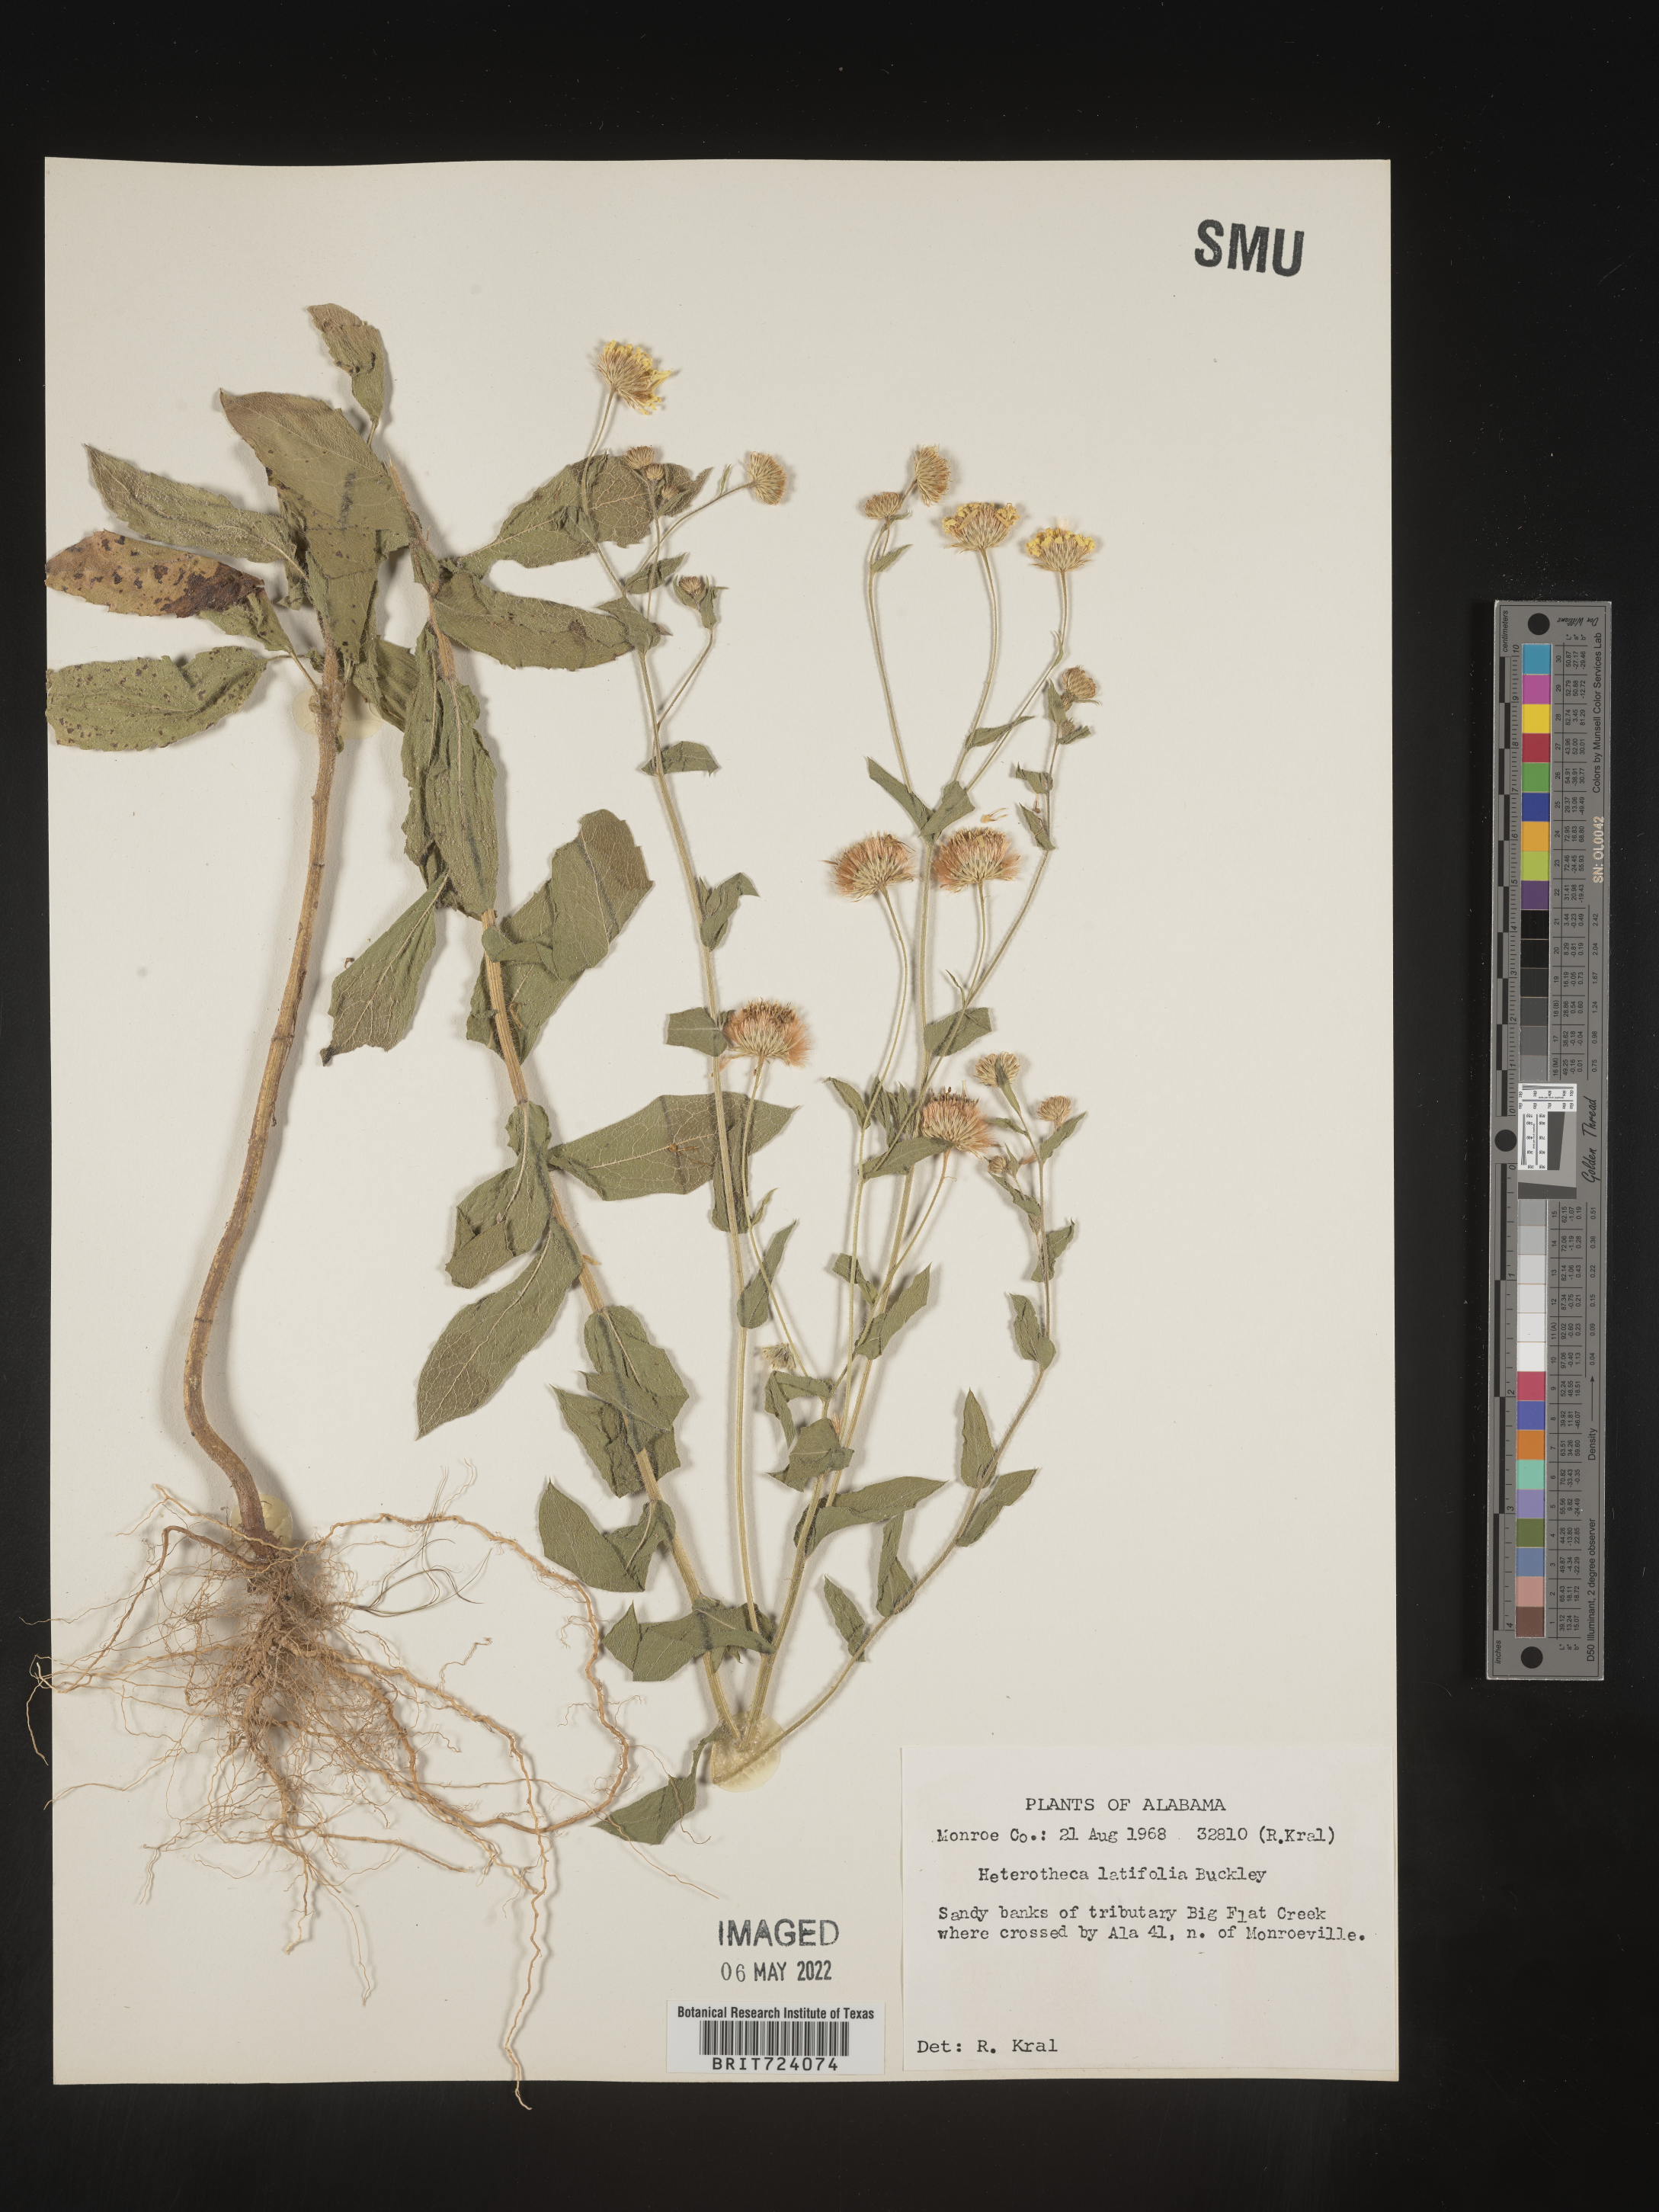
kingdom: Plantae
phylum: Tracheophyta
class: Magnoliopsida
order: Asterales
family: Asteraceae
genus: Heterotheca
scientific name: Heterotheca subaxillaris
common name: Camphorweed
